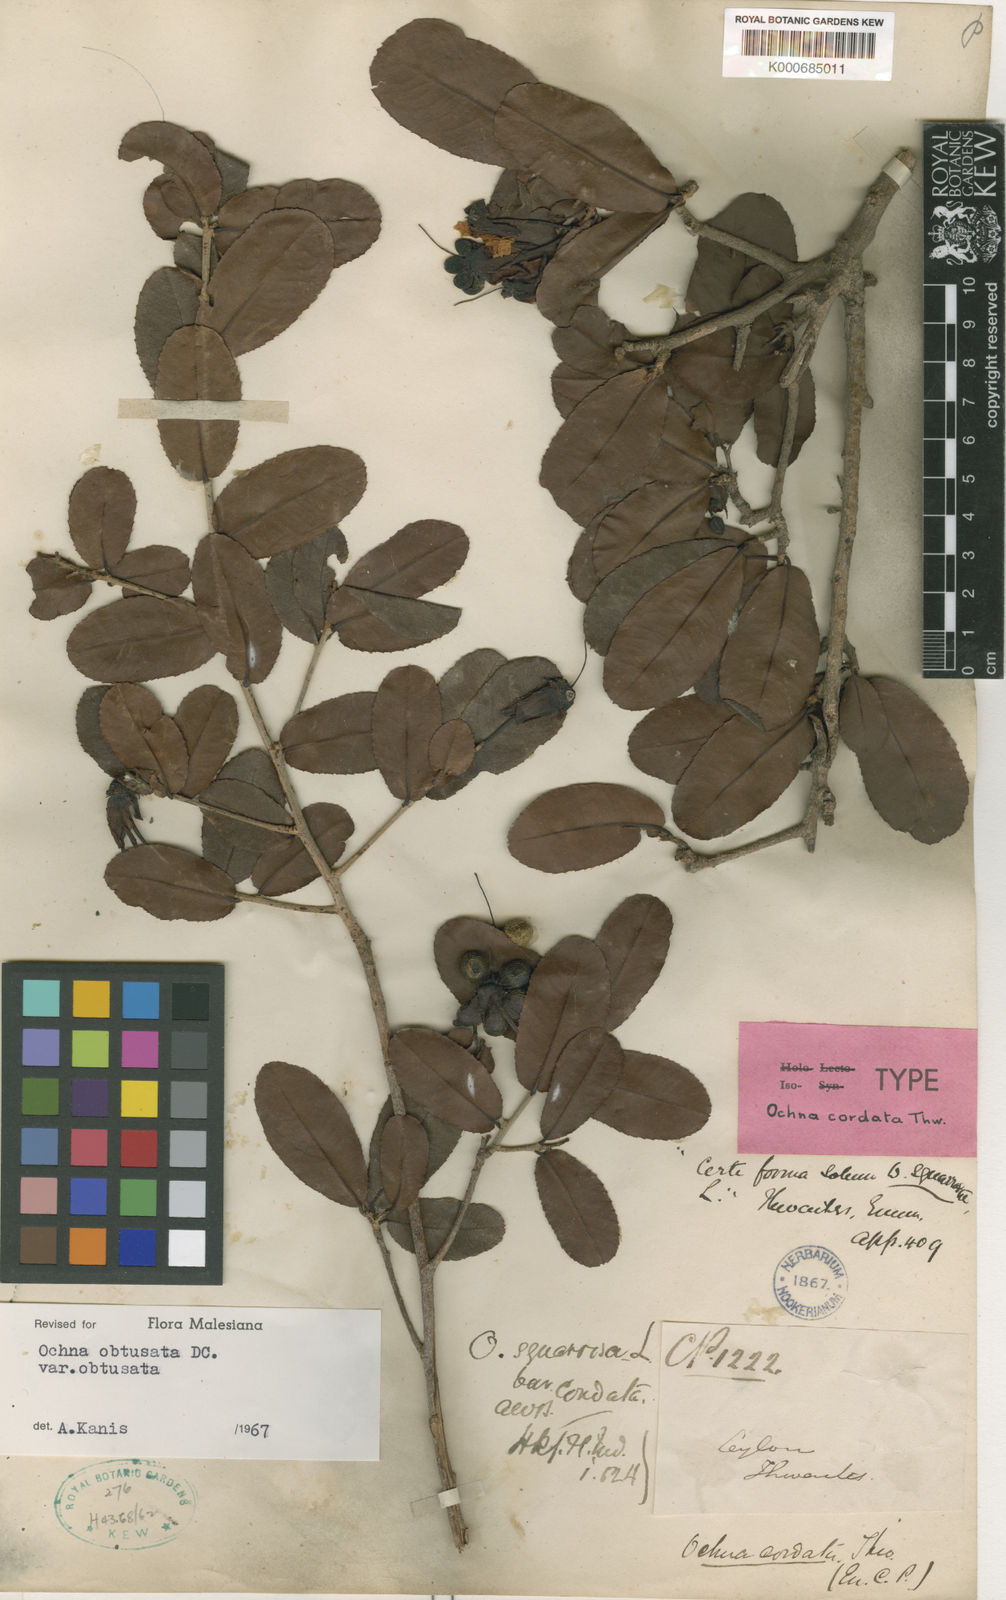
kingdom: Plantae
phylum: Tracheophyta
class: Magnoliopsida
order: Malpighiales
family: Ochnaceae
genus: Ochna
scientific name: Ochna obtusata
